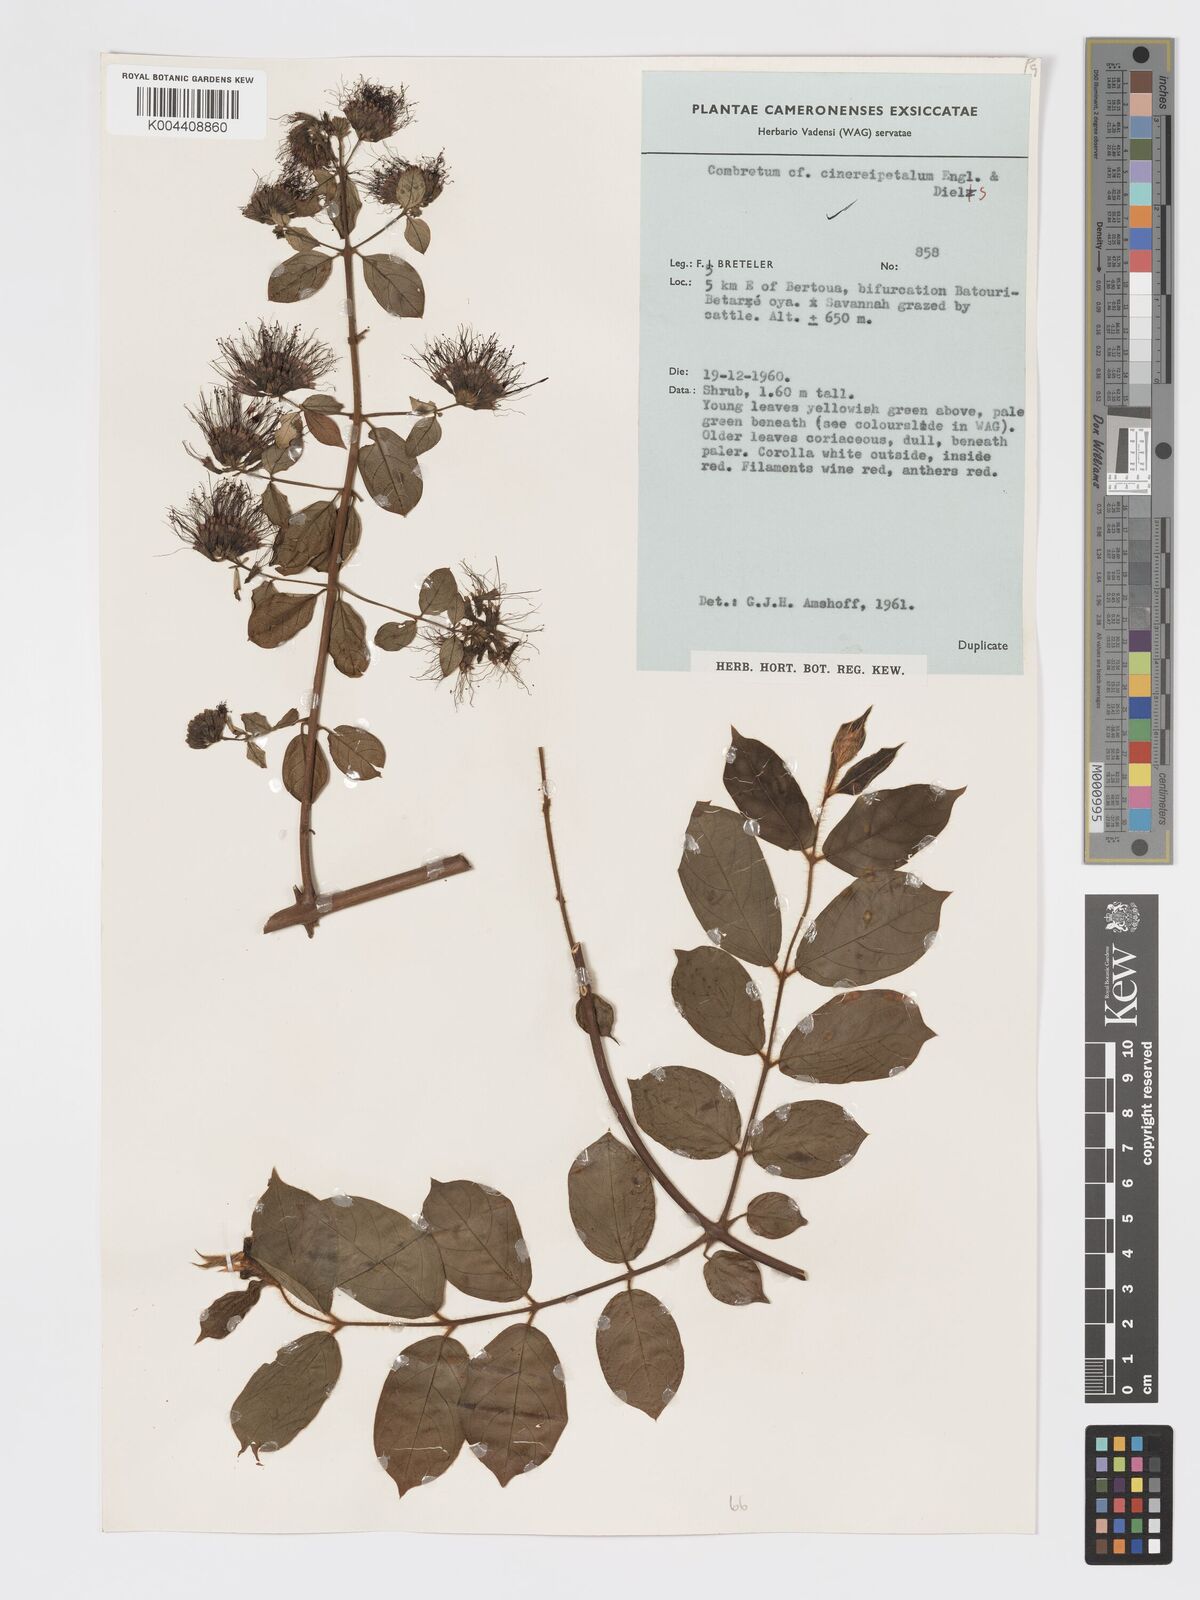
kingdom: Plantae
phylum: Tracheophyta
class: Magnoliopsida
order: Myrtales
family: Combretaceae
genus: Combretum
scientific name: Combretum cinereopetalum
